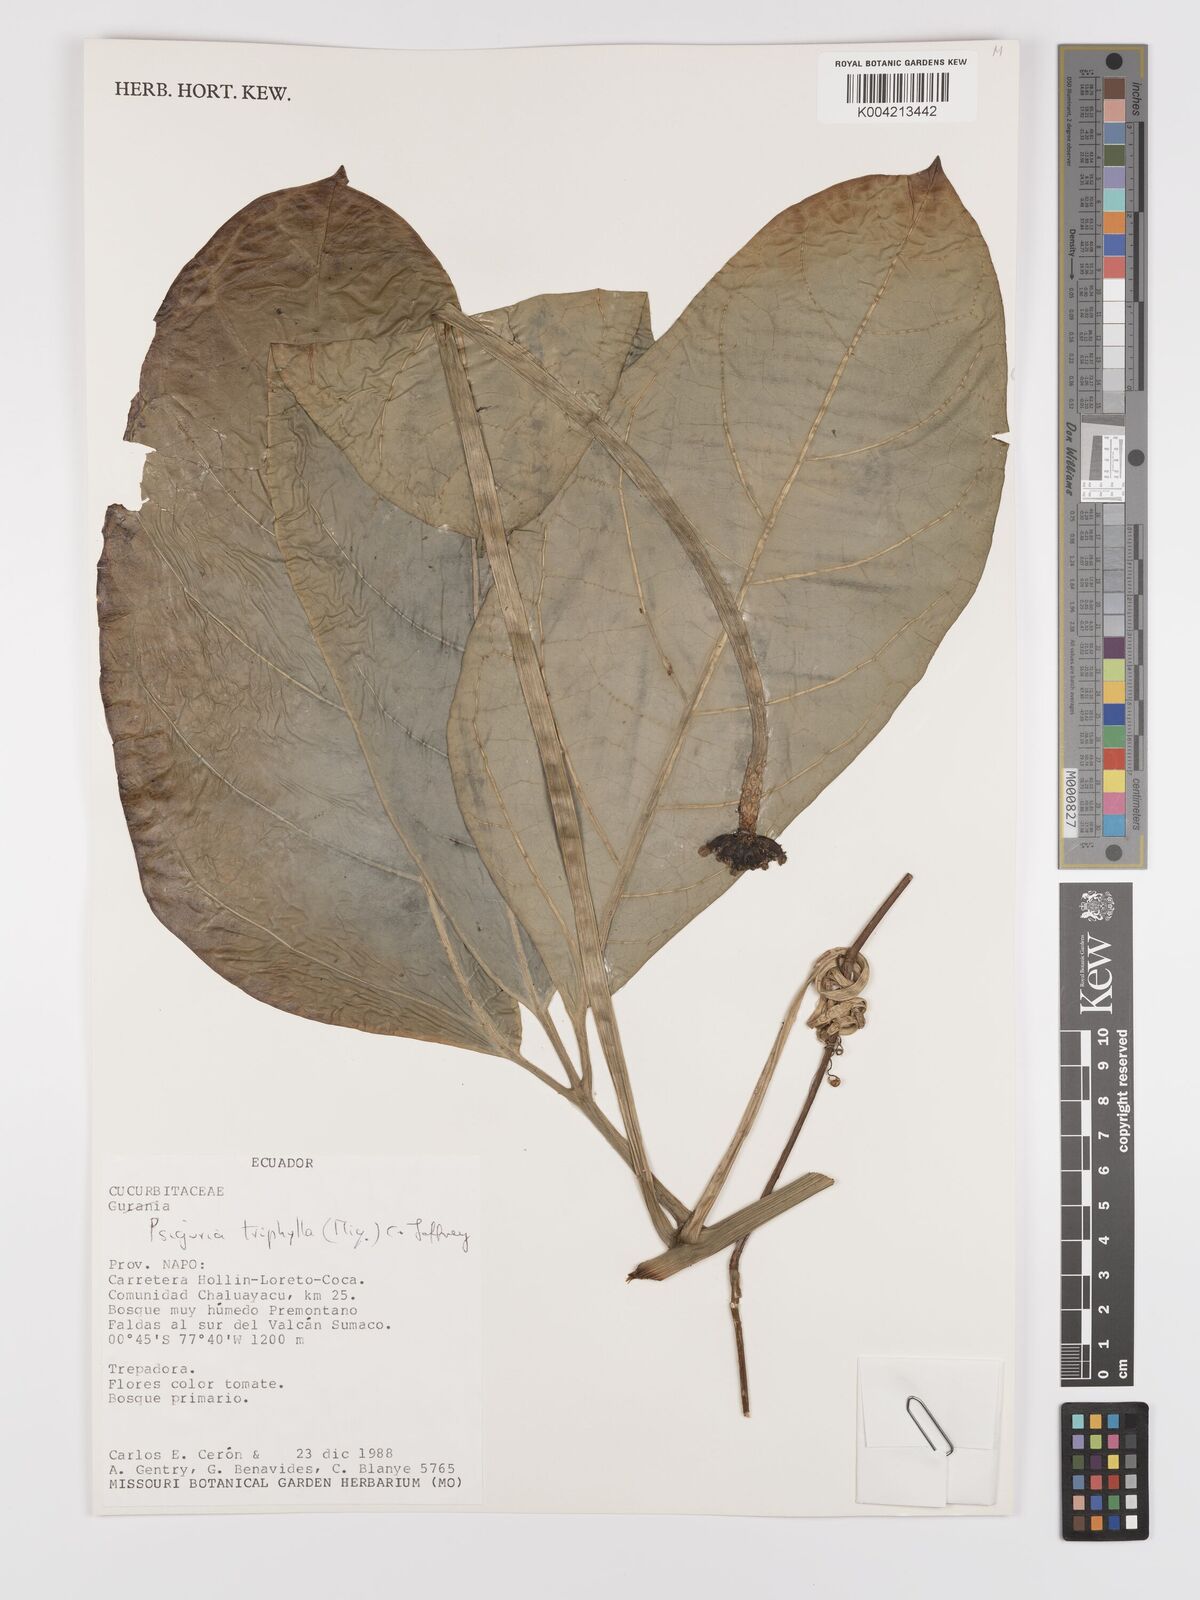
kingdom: Plantae
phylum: Tracheophyta
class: Magnoliopsida
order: Cucurbitales
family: Cucurbitaceae
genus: Psiguria
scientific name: Psiguria triphylla
